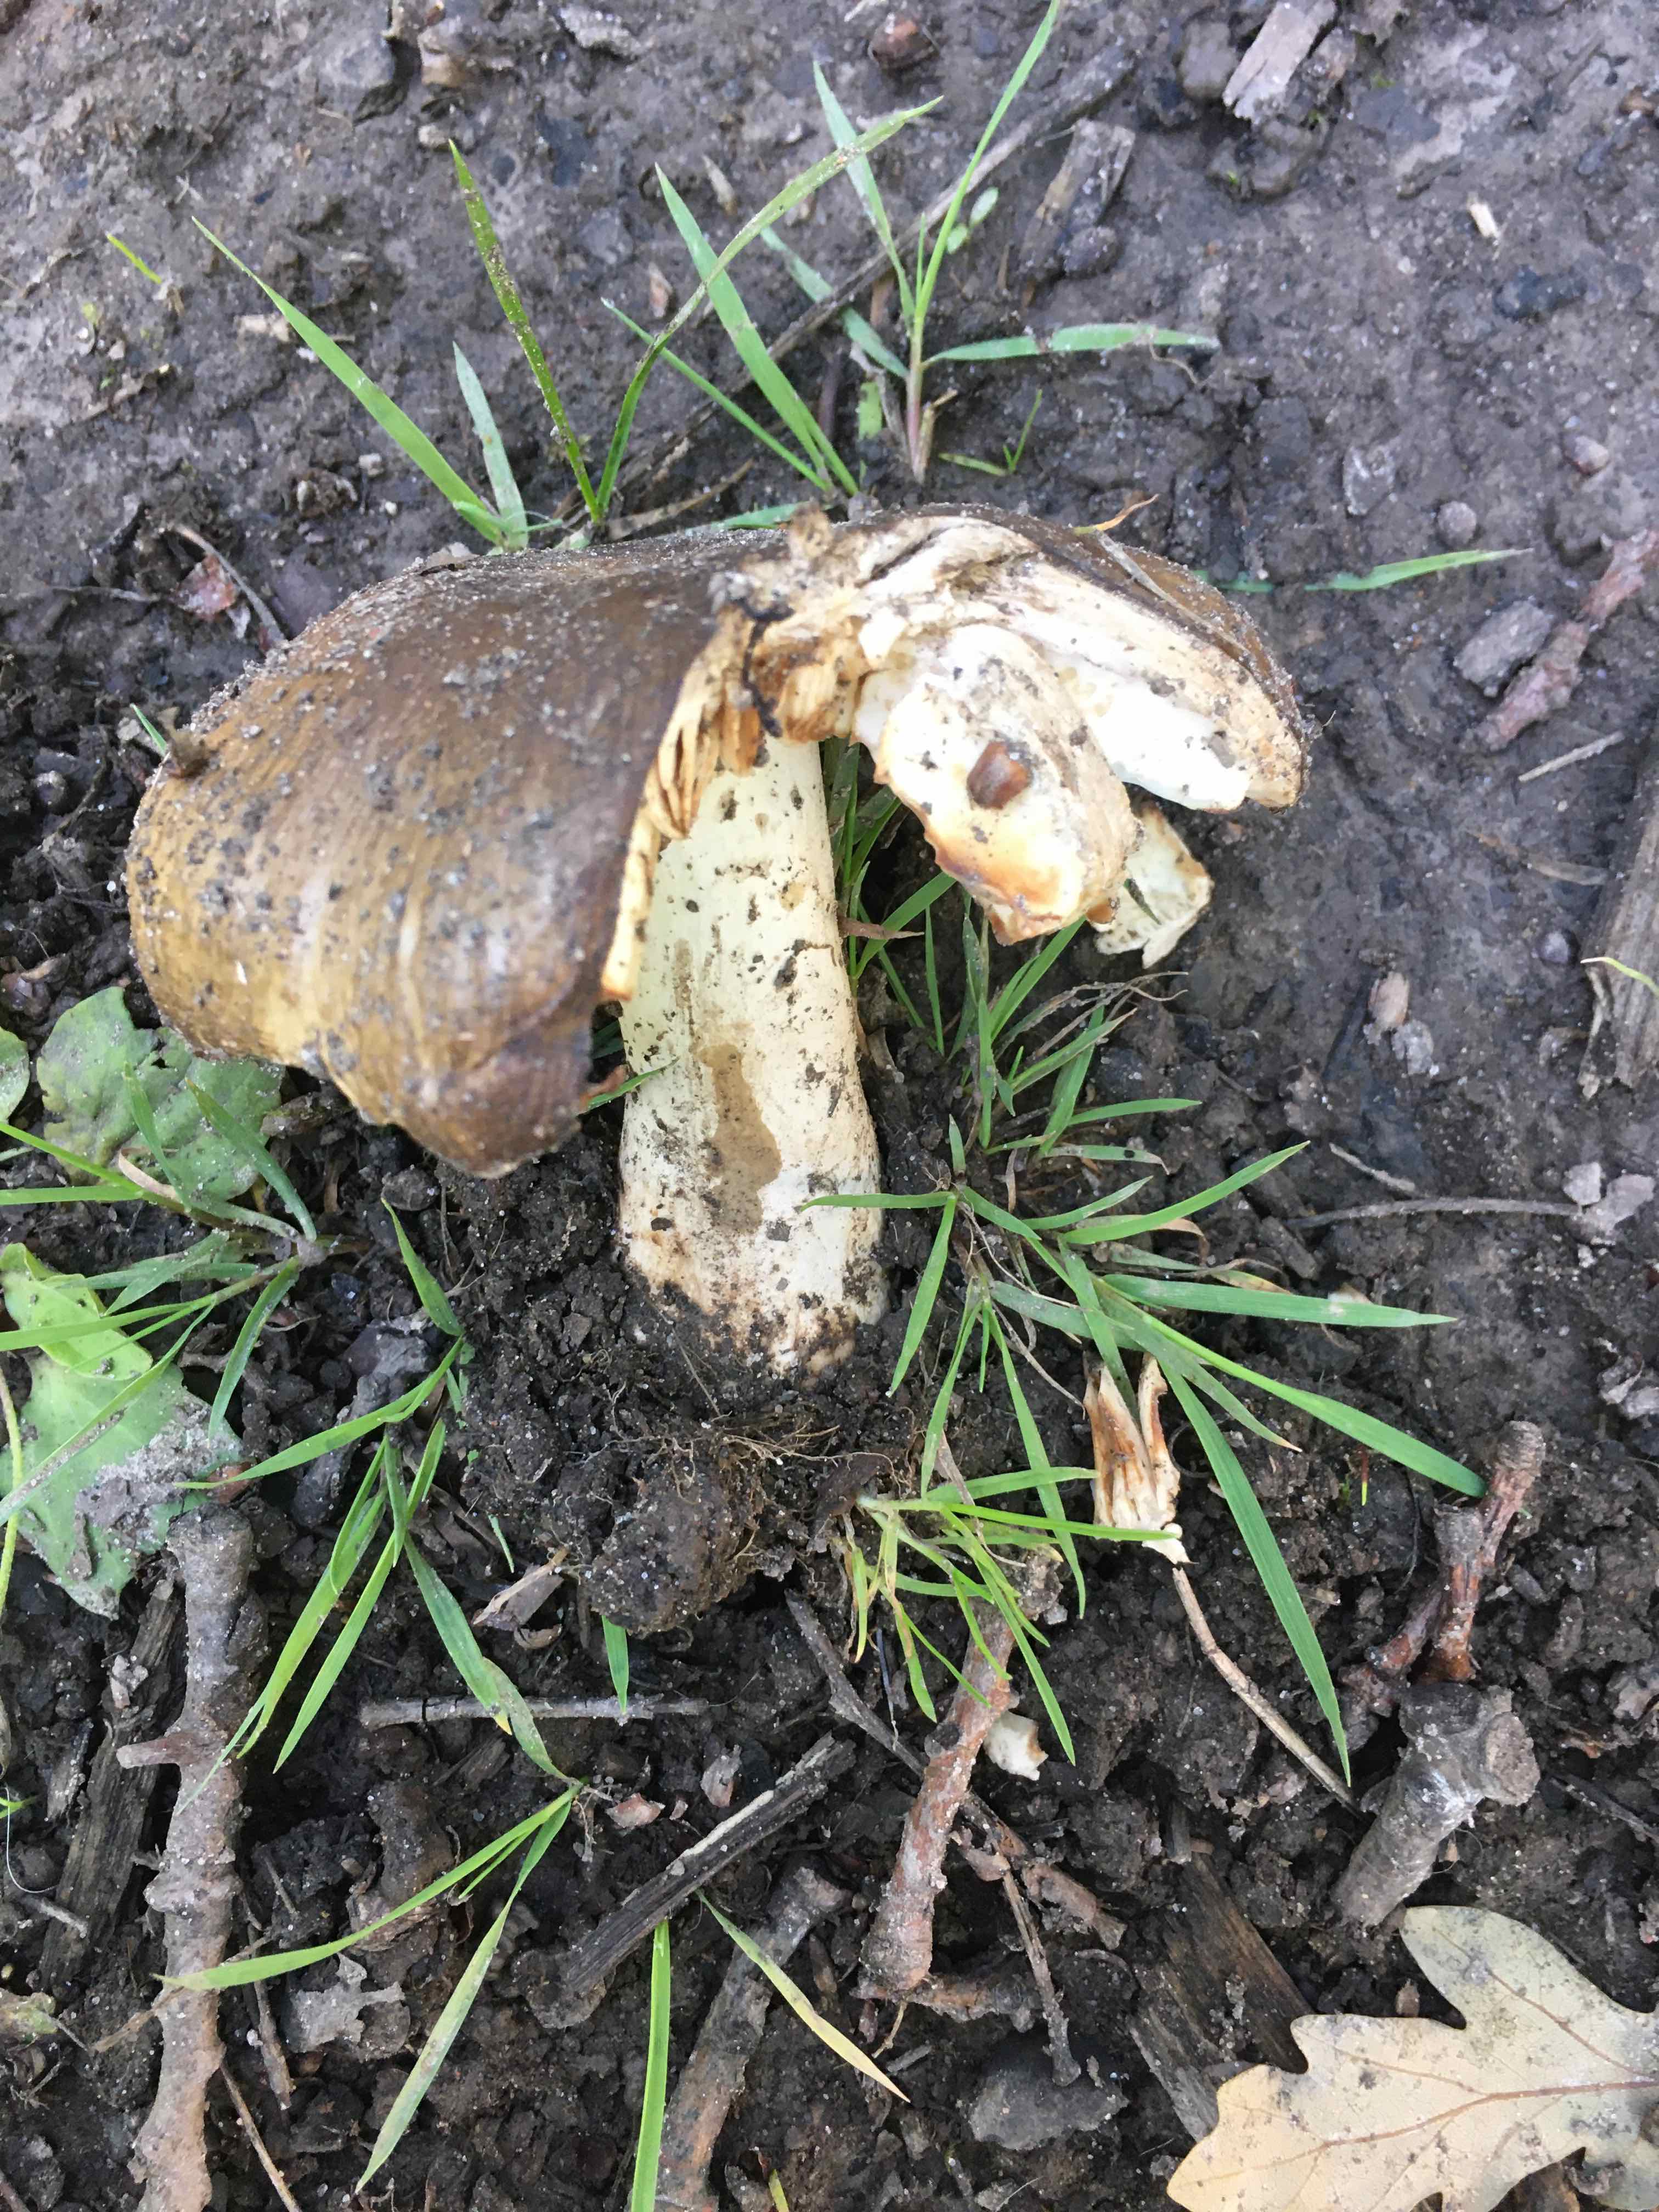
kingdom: Fungi
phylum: Basidiomycota
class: Agaricomycetes
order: Russulales
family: Russulaceae
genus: Russula
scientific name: Russula sororia
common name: brun kam-skørhat
